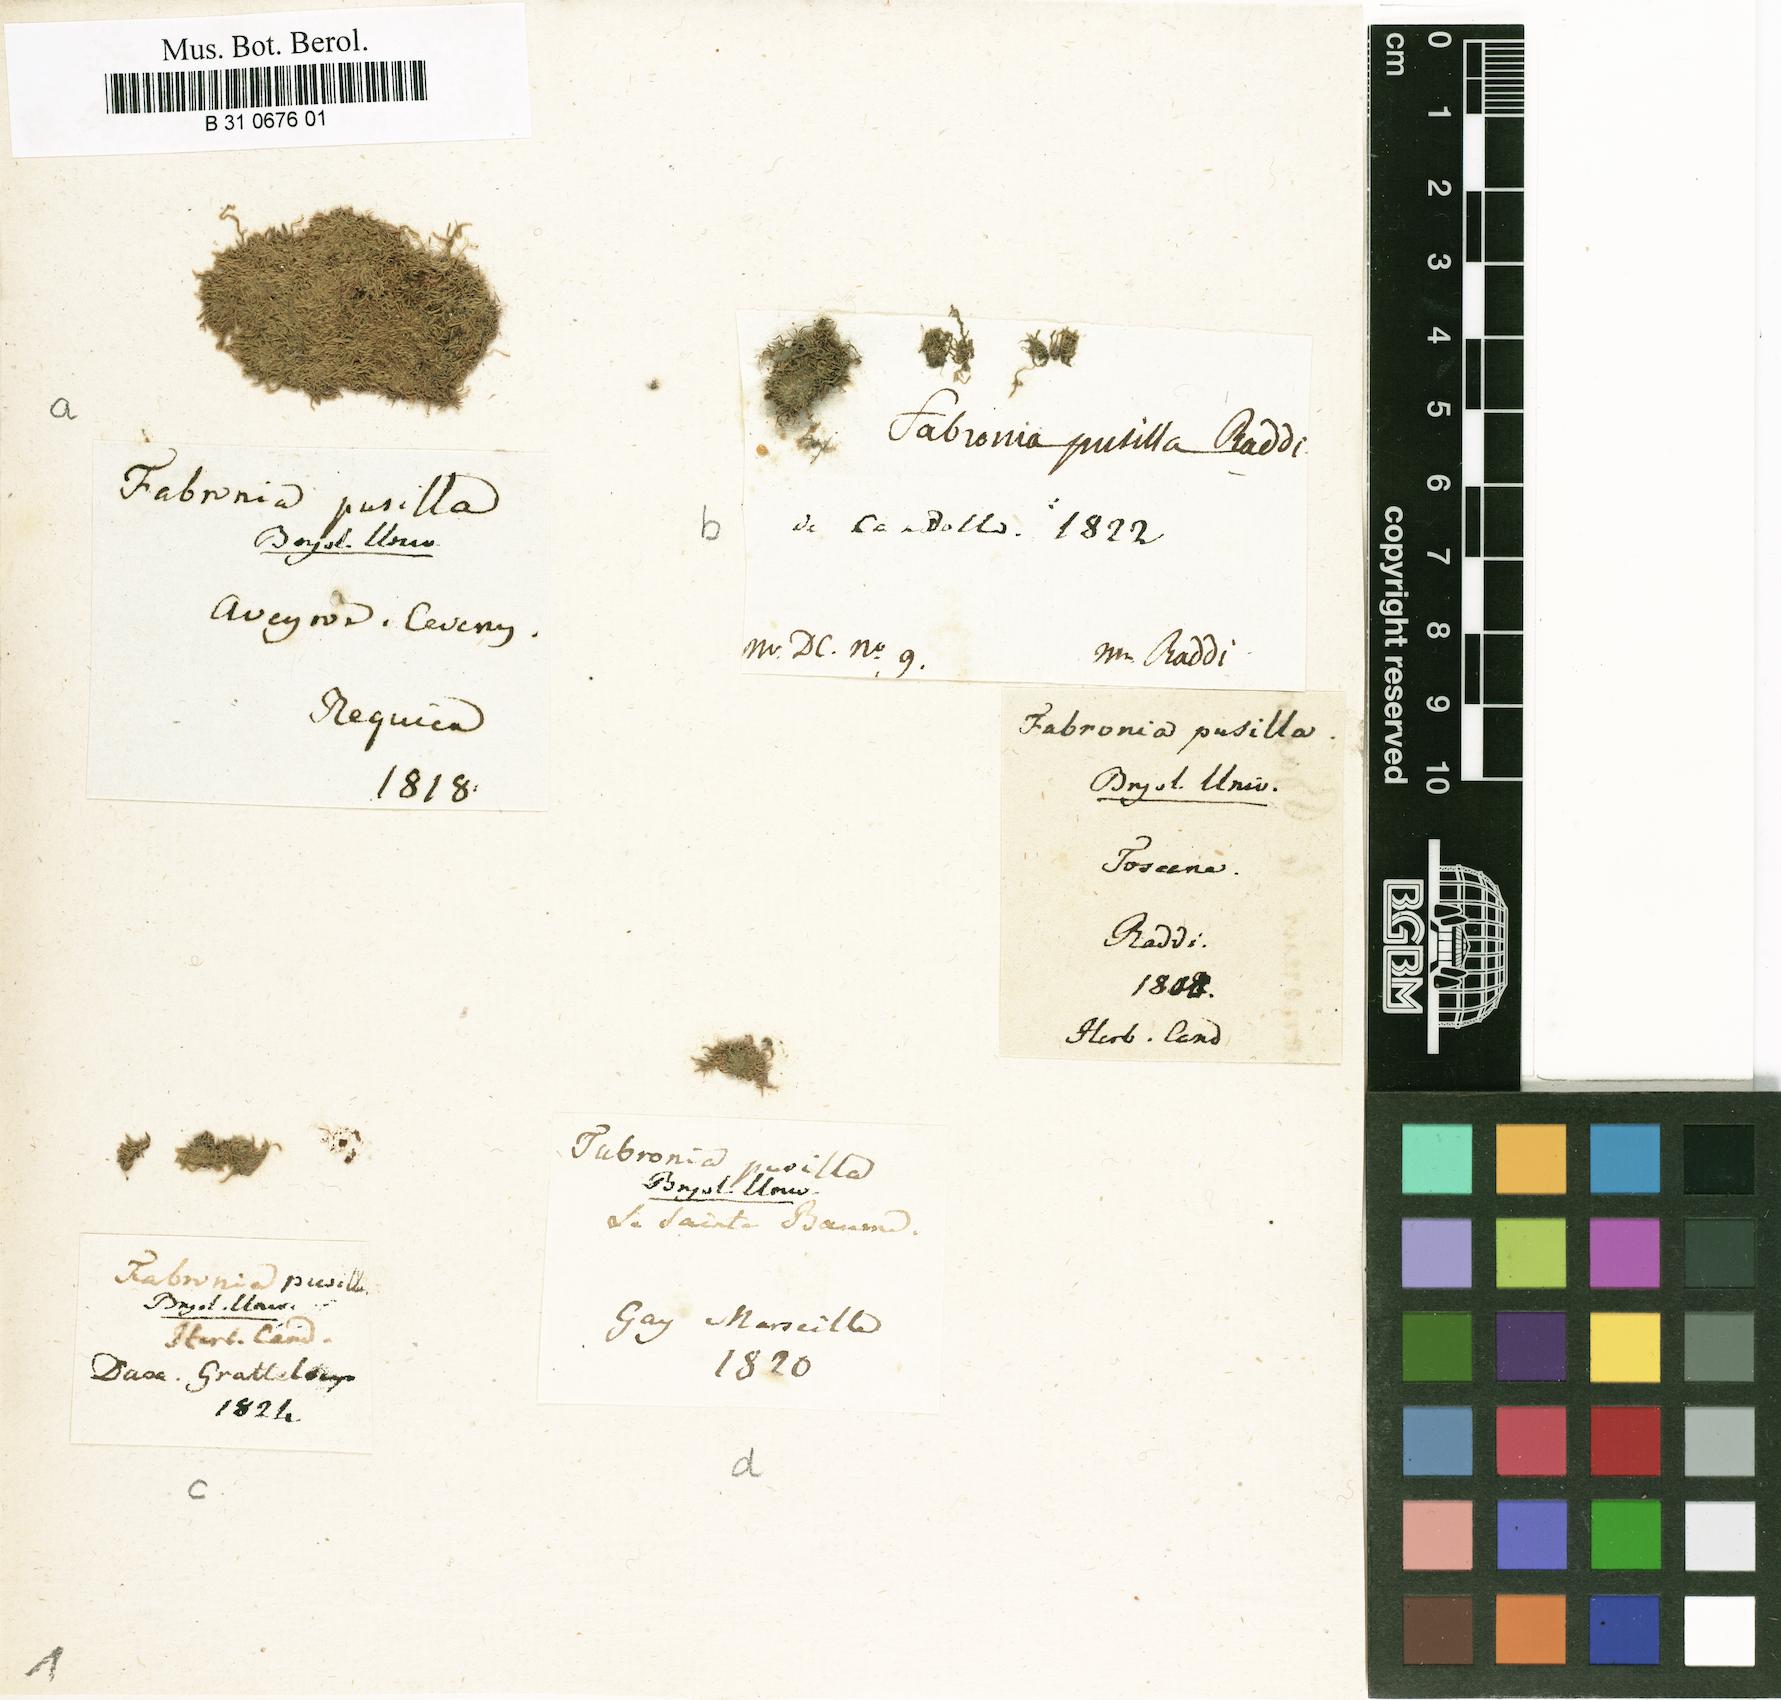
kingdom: Plantae
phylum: Bryophyta
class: Bryopsida
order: Hypnales
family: Fabroniaceae
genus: Fabronia
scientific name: Fabronia pusilla
